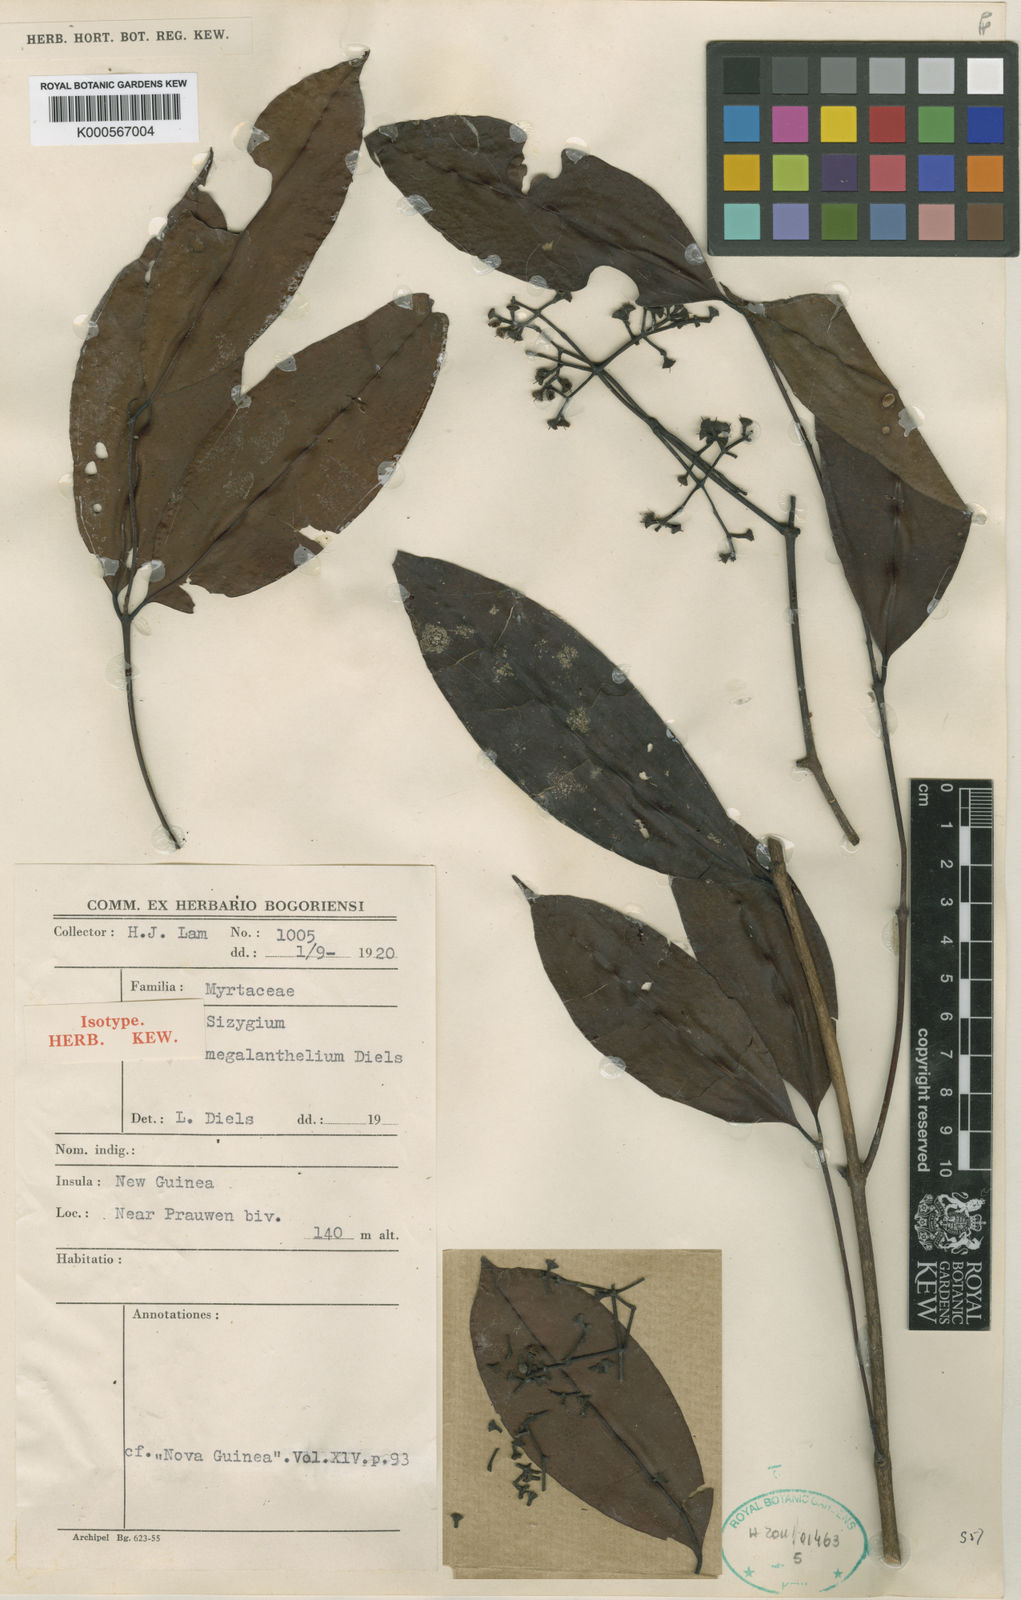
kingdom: Plantae
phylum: Tracheophyta
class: Magnoliopsida
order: Myrtales
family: Myrtaceae
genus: Syzygium
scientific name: Syzygium decipiens
